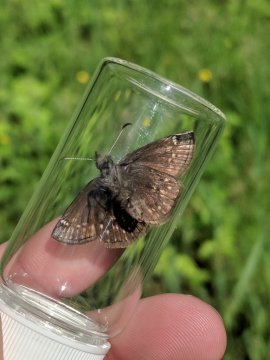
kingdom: Animalia
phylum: Arthropoda
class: Insecta
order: Lepidoptera
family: Hesperiidae
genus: Erynnis
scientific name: Erynnis icelus
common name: Dreamy Duskywing
